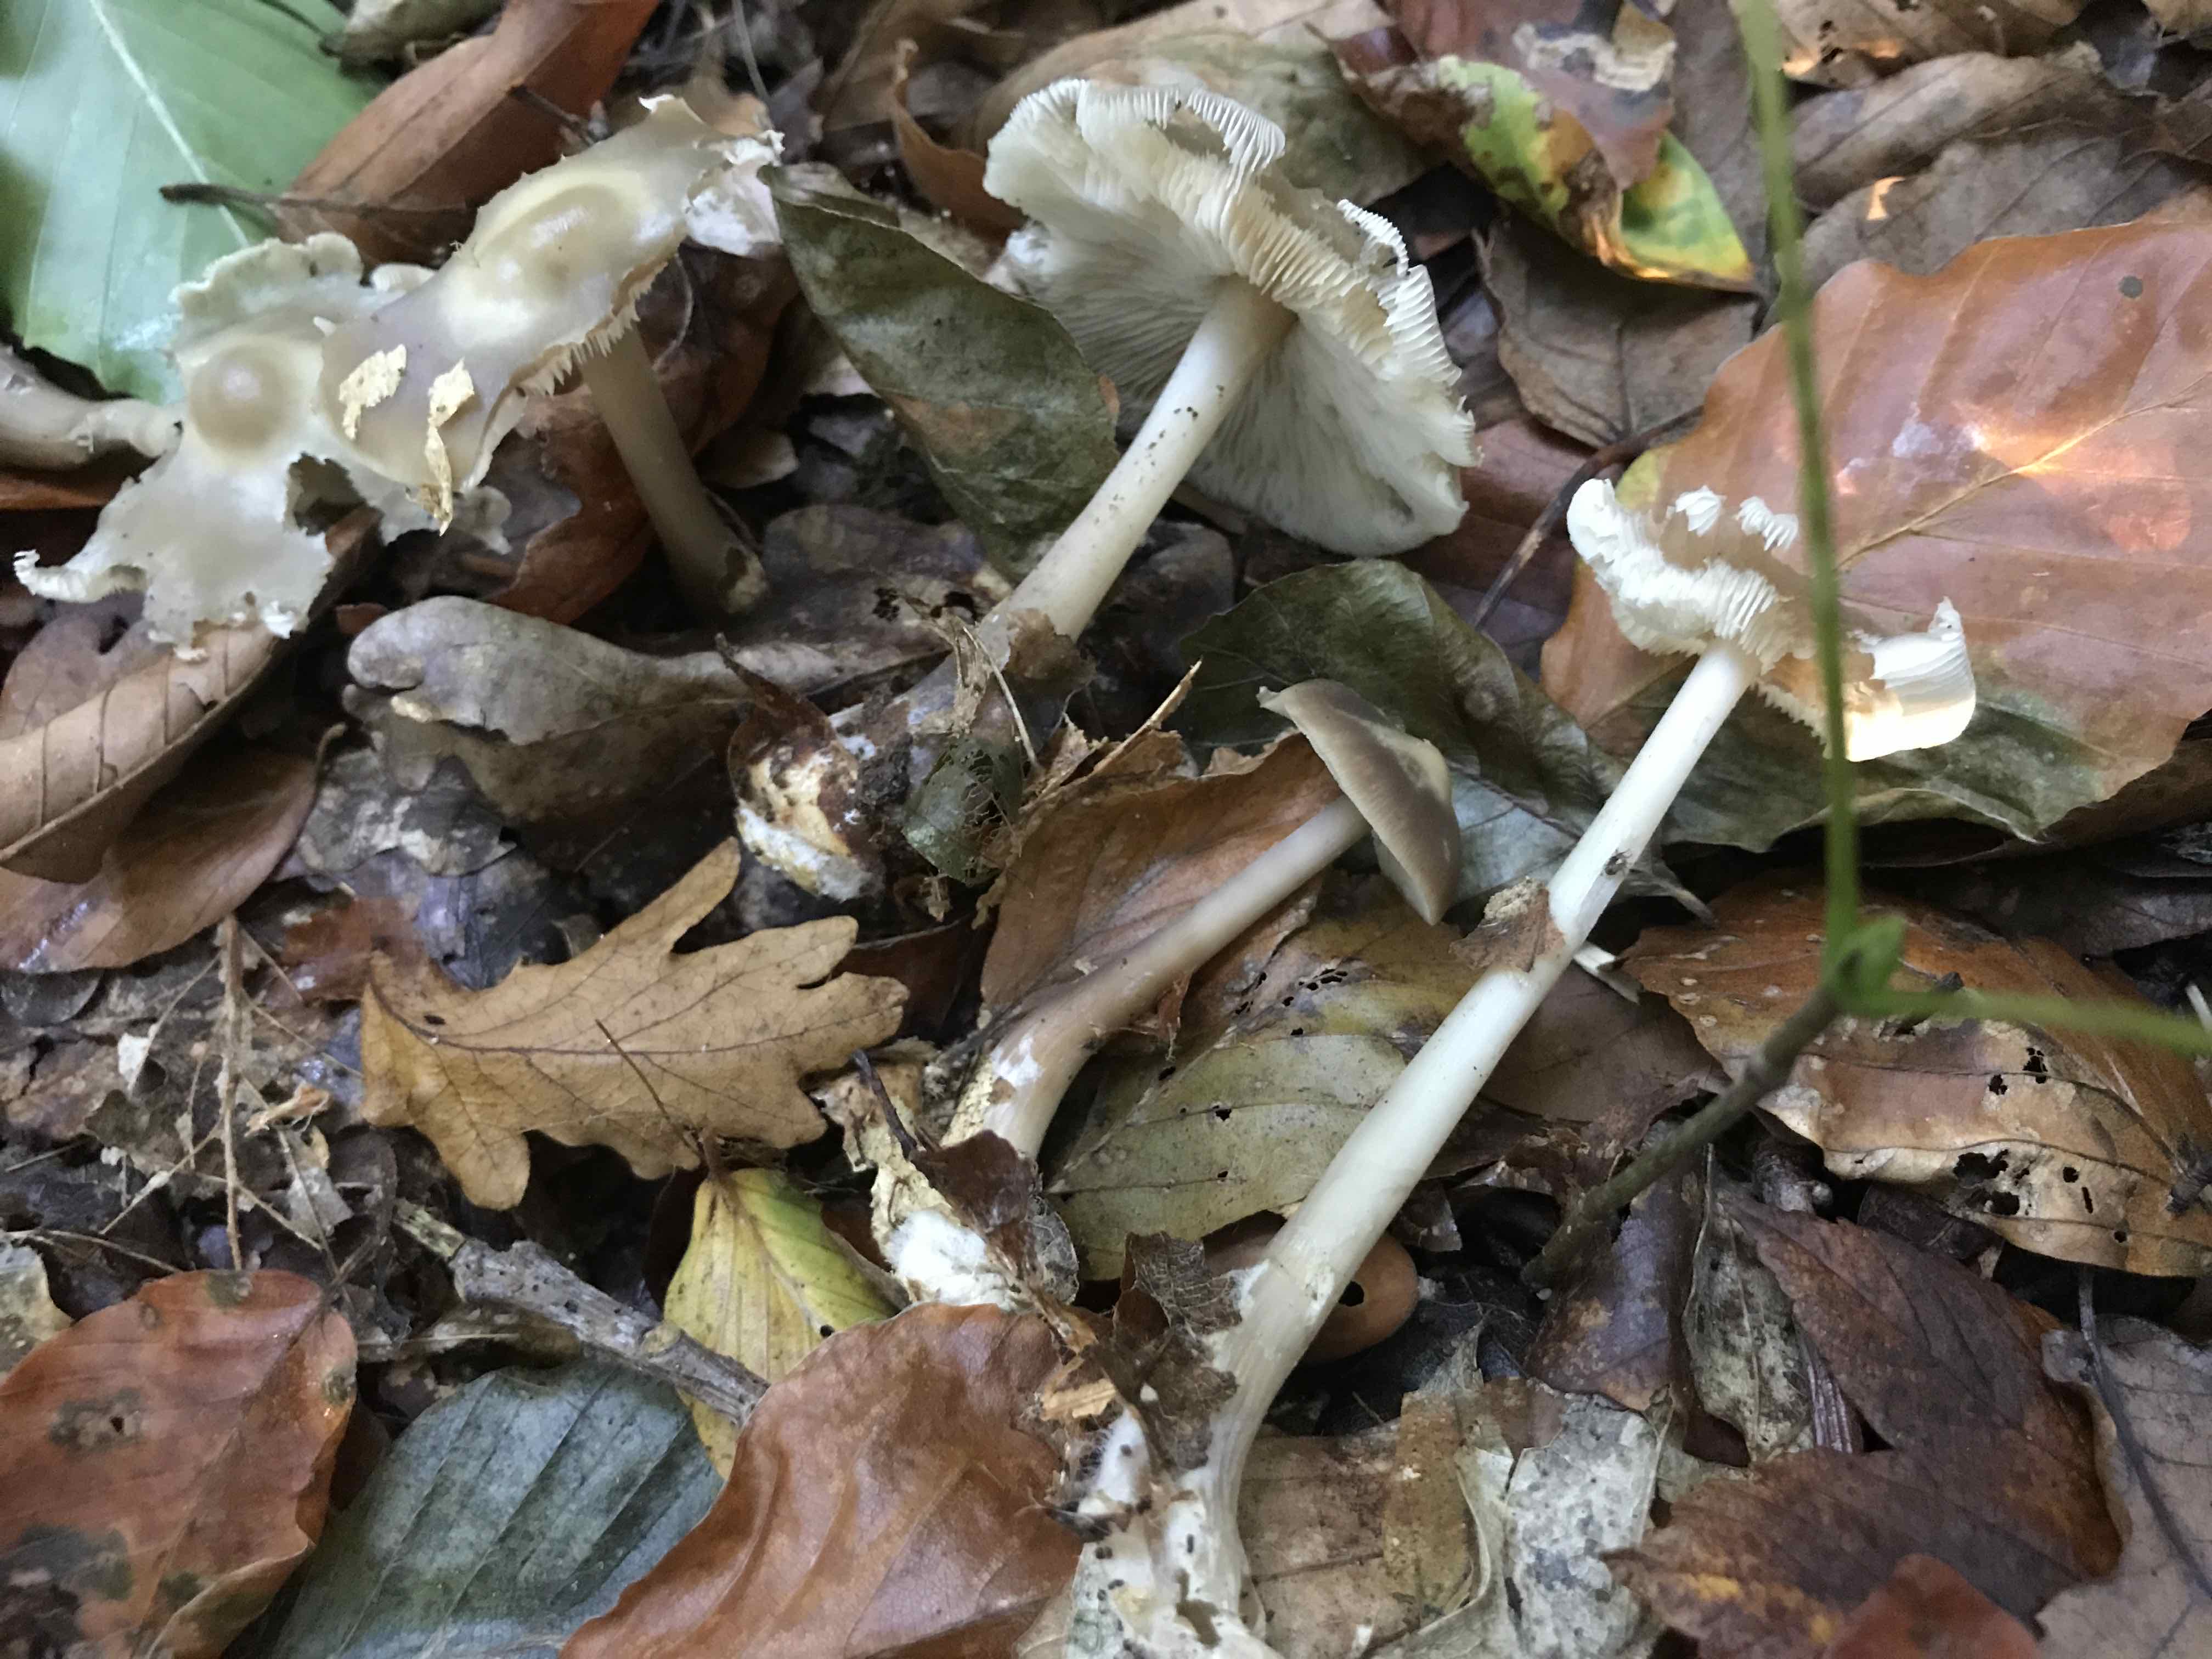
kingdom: Fungi
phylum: Basidiomycota
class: Agaricomycetes
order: Agaricales
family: Omphalotaceae
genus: Rhodocollybia
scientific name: Rhodocollybia asema
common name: horngrå fladhat
